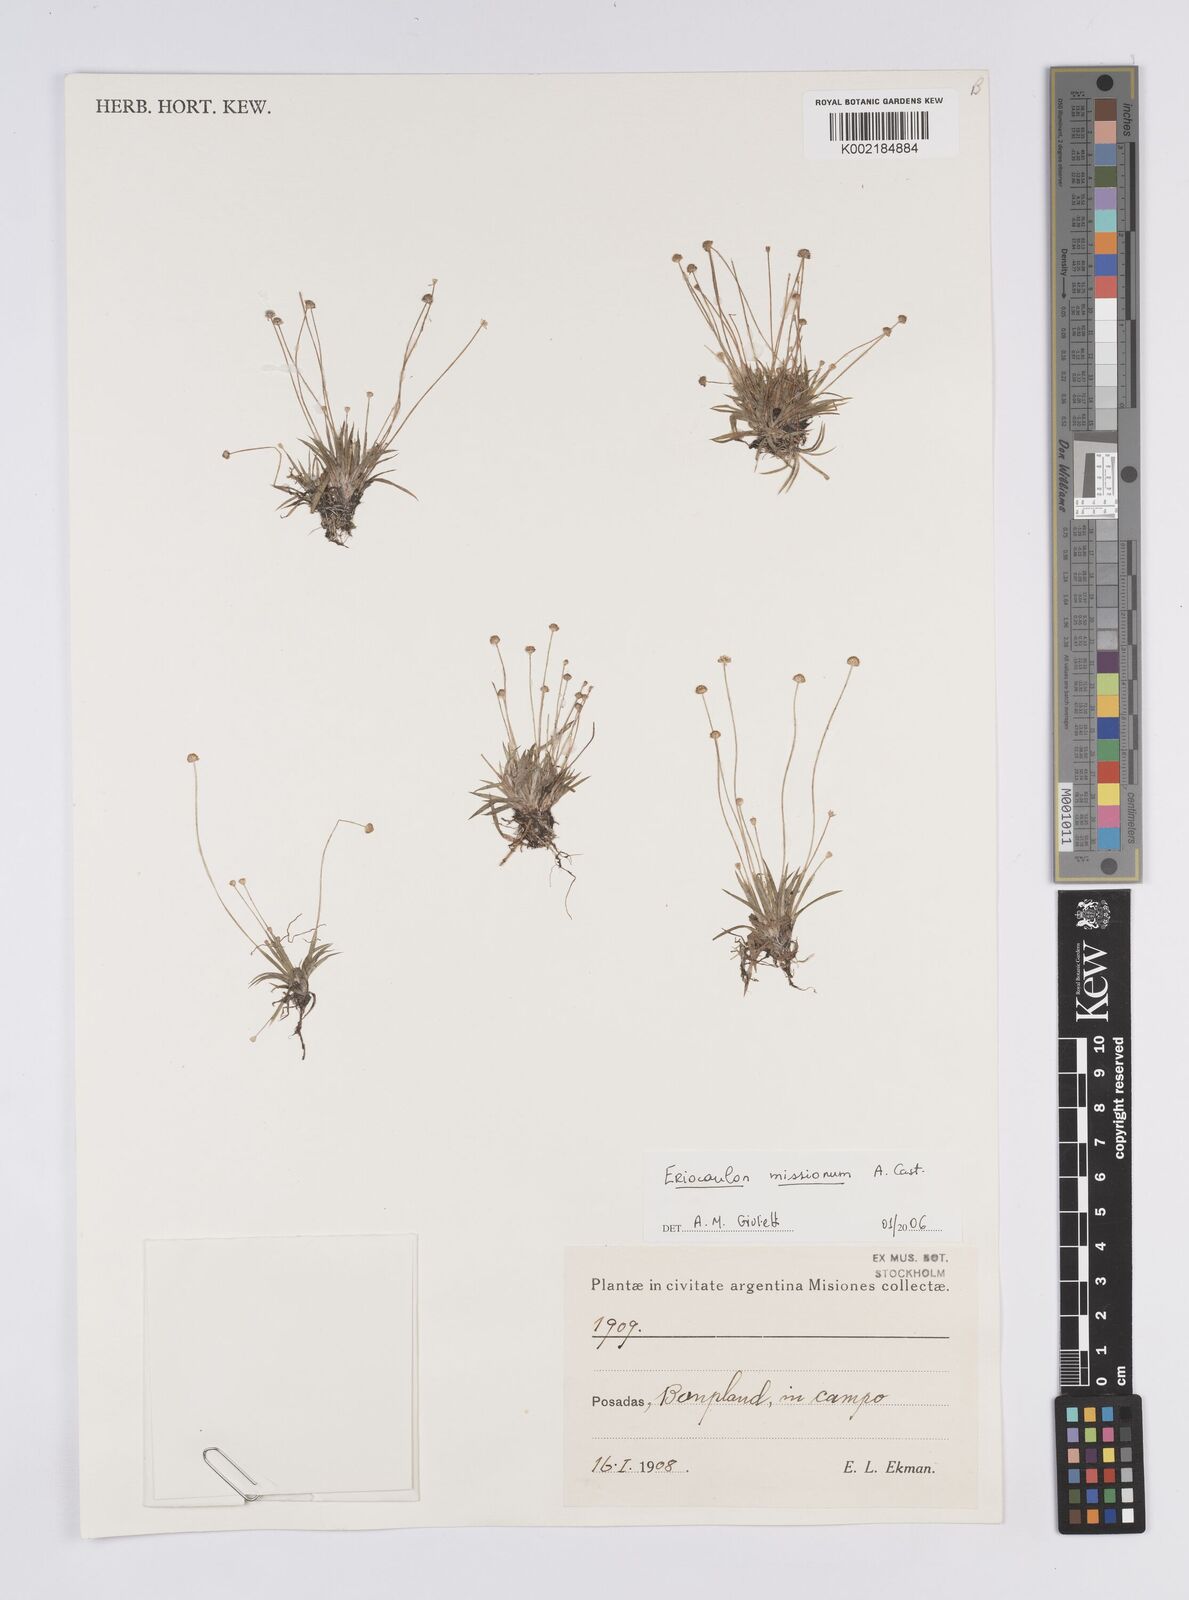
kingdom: Plantae
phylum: Tracheophyta
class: Liliopsida
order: Poales
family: Eriocaulaceae
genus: Eriocaulon
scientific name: Eriocaulon misionum
